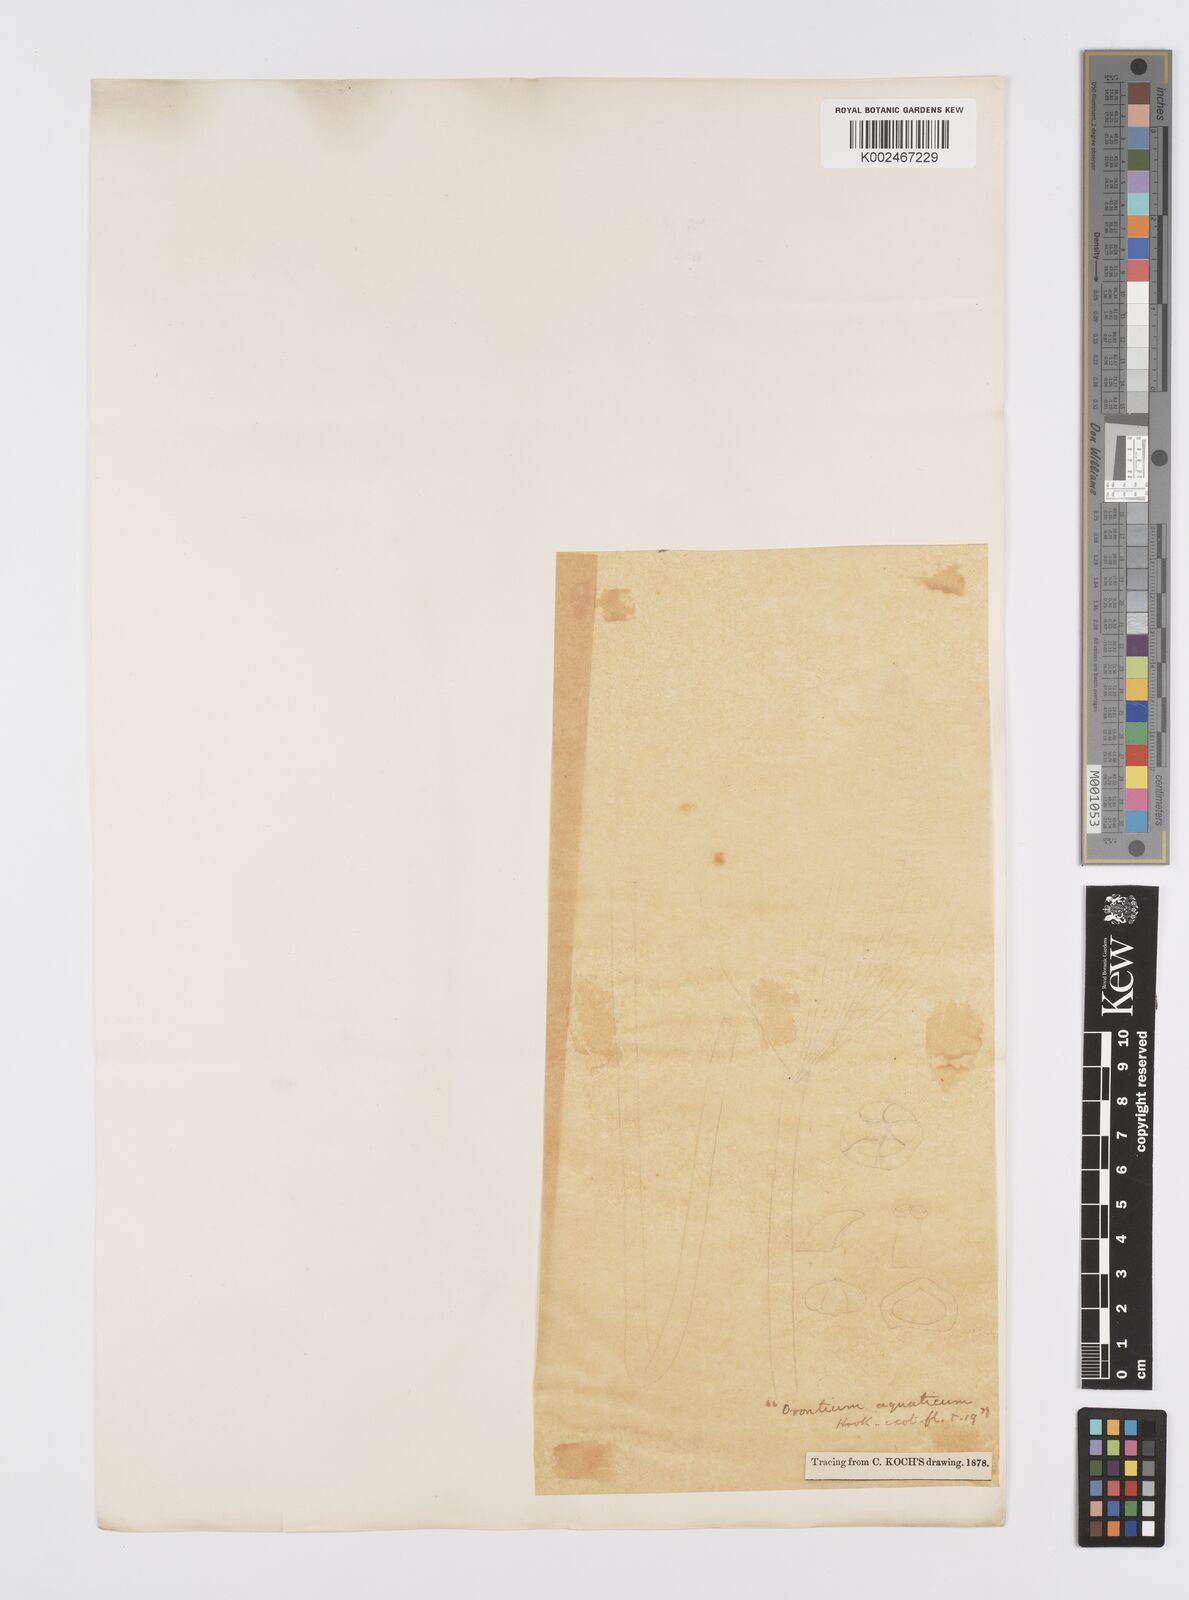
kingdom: Plantae
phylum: Tracheophyta
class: Liliopsida
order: Alismatales
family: Araceae
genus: Orontium
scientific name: Orontium aquaticum
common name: Golden-club
